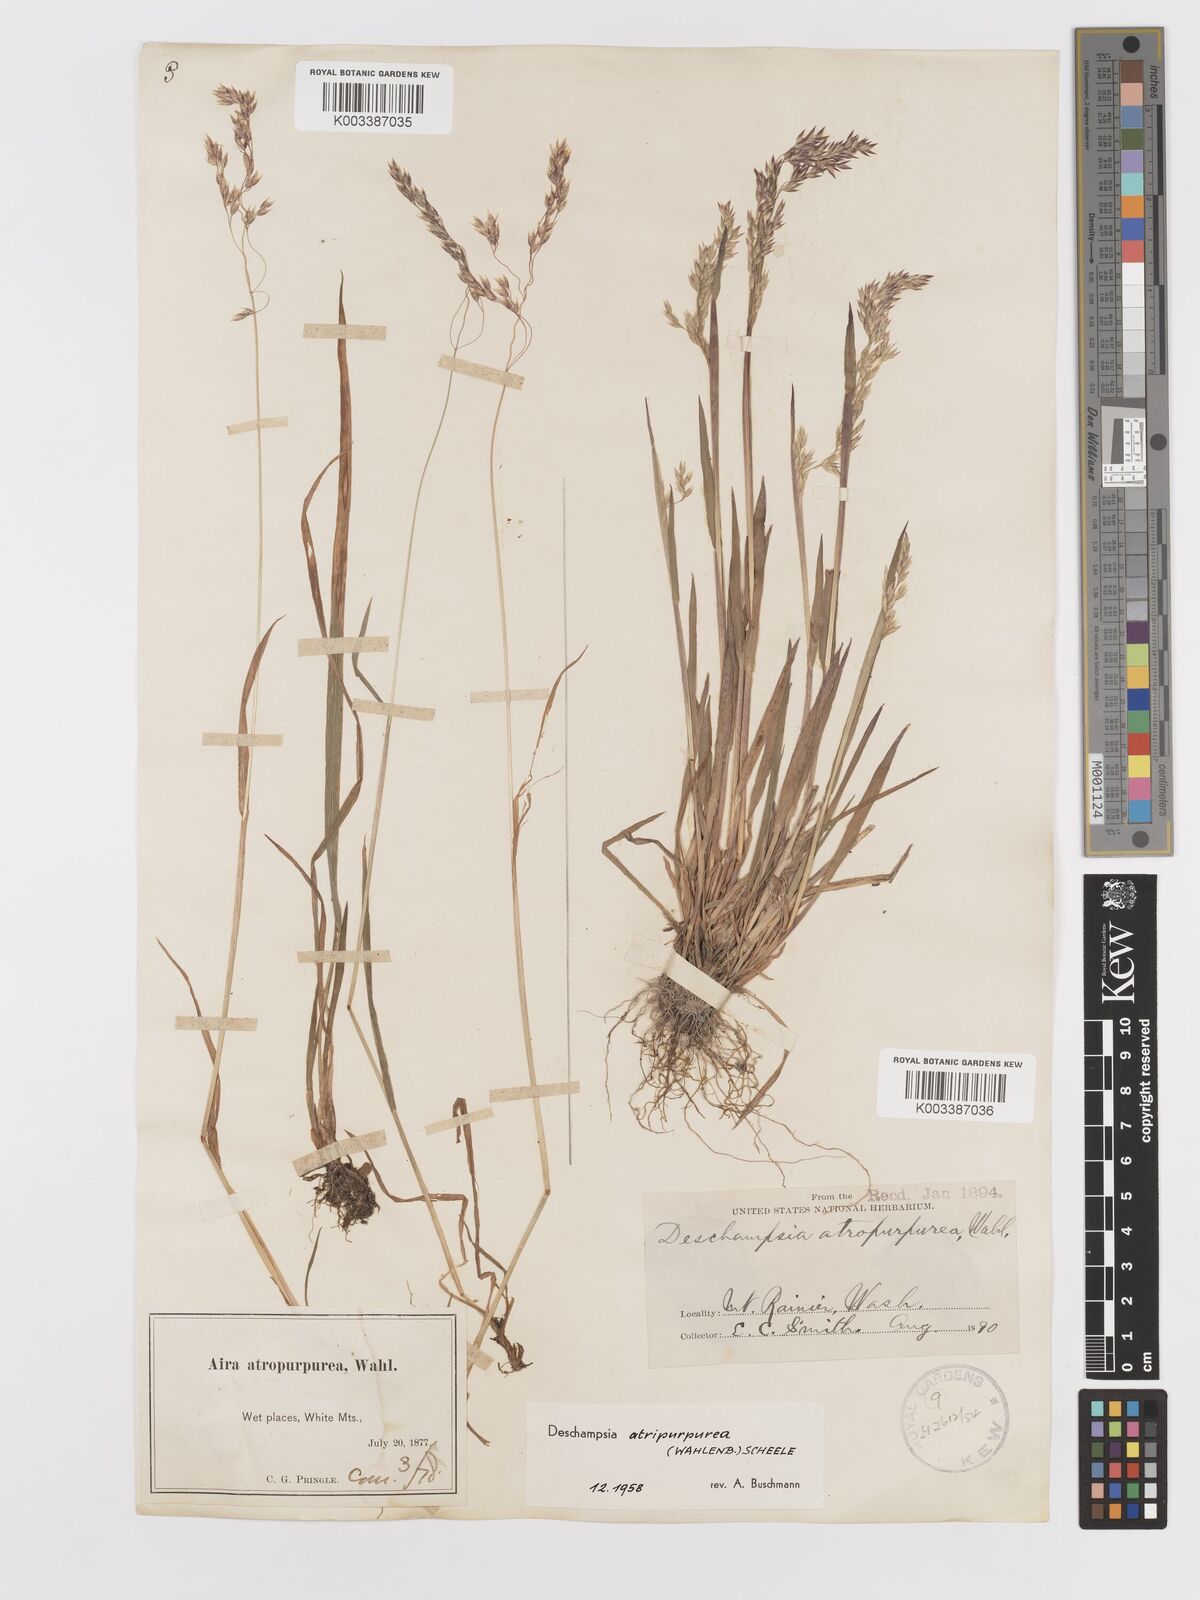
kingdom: Plantae
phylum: Tracheophyta
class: Liliopsida
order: Poales
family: Poaceae
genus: Vahlodea
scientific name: Vahlodea atropurpurea
